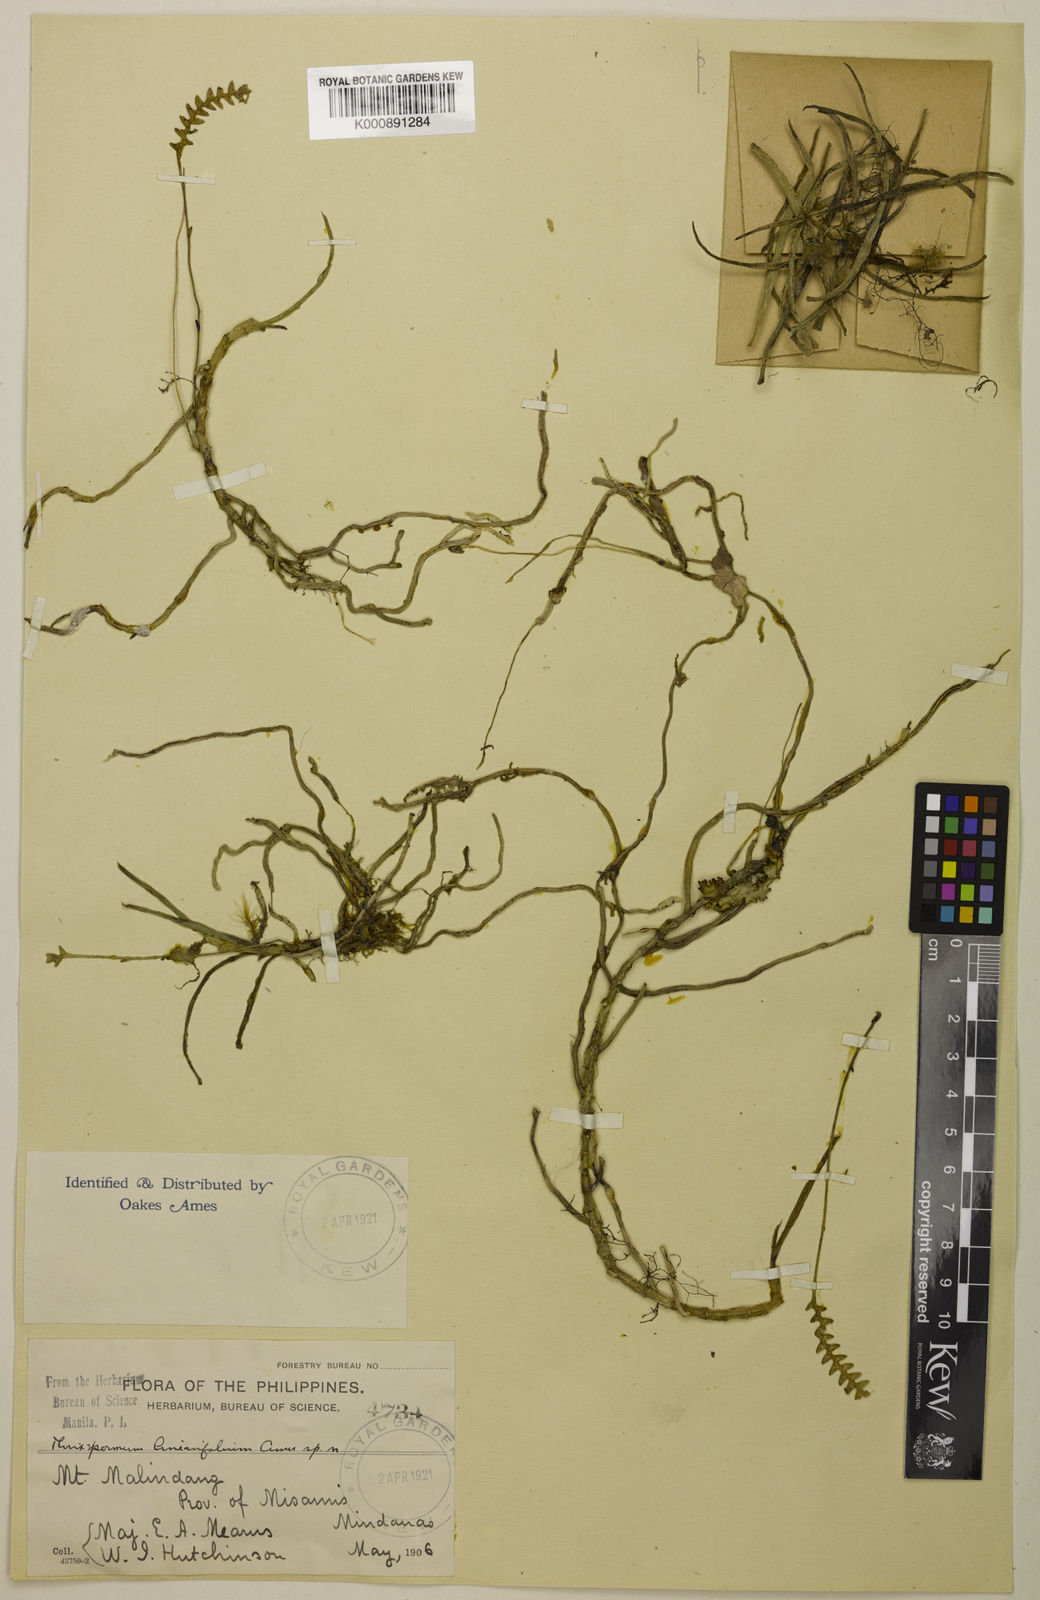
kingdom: Plantae
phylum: Tracheophyta
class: Liliopsida
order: Asparagales
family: Orchidaceae
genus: Thrixspermum
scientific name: Thrixspermum linearifolium
